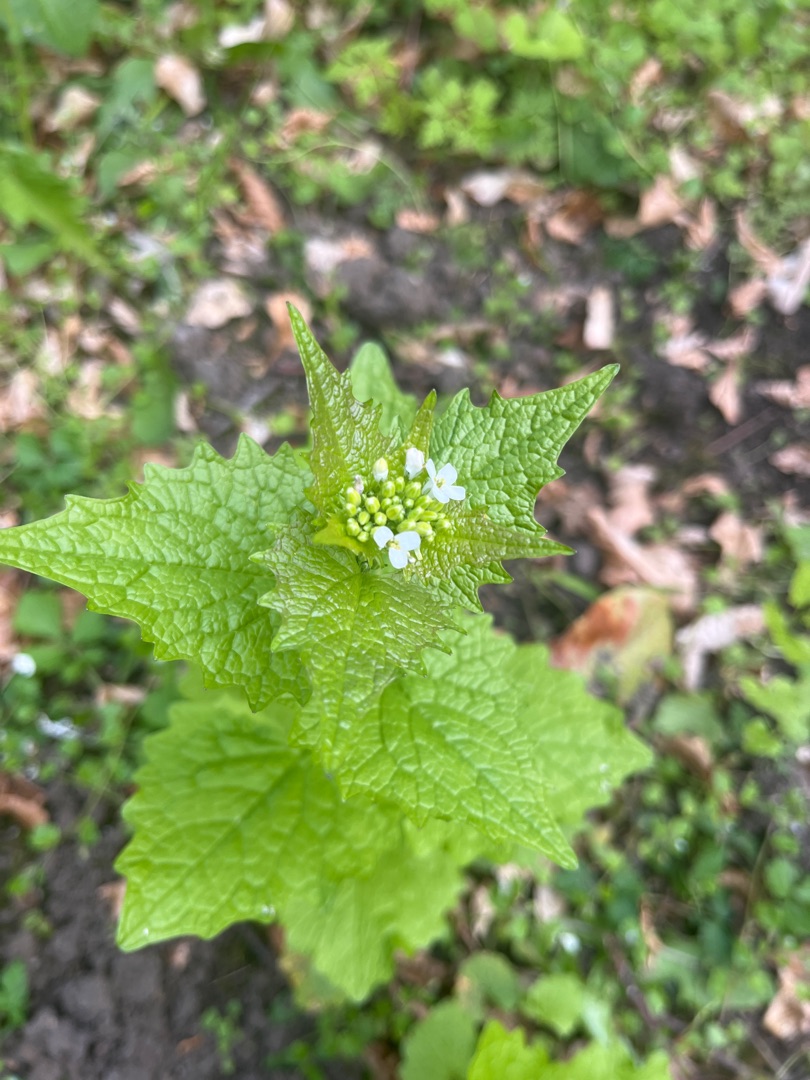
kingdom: Plantae
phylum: Tracheophyta
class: Magnoliopsida
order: Brassicales
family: Brassicaceae
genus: Alliaria
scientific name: Alliaria petiolata
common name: Løgkarse
